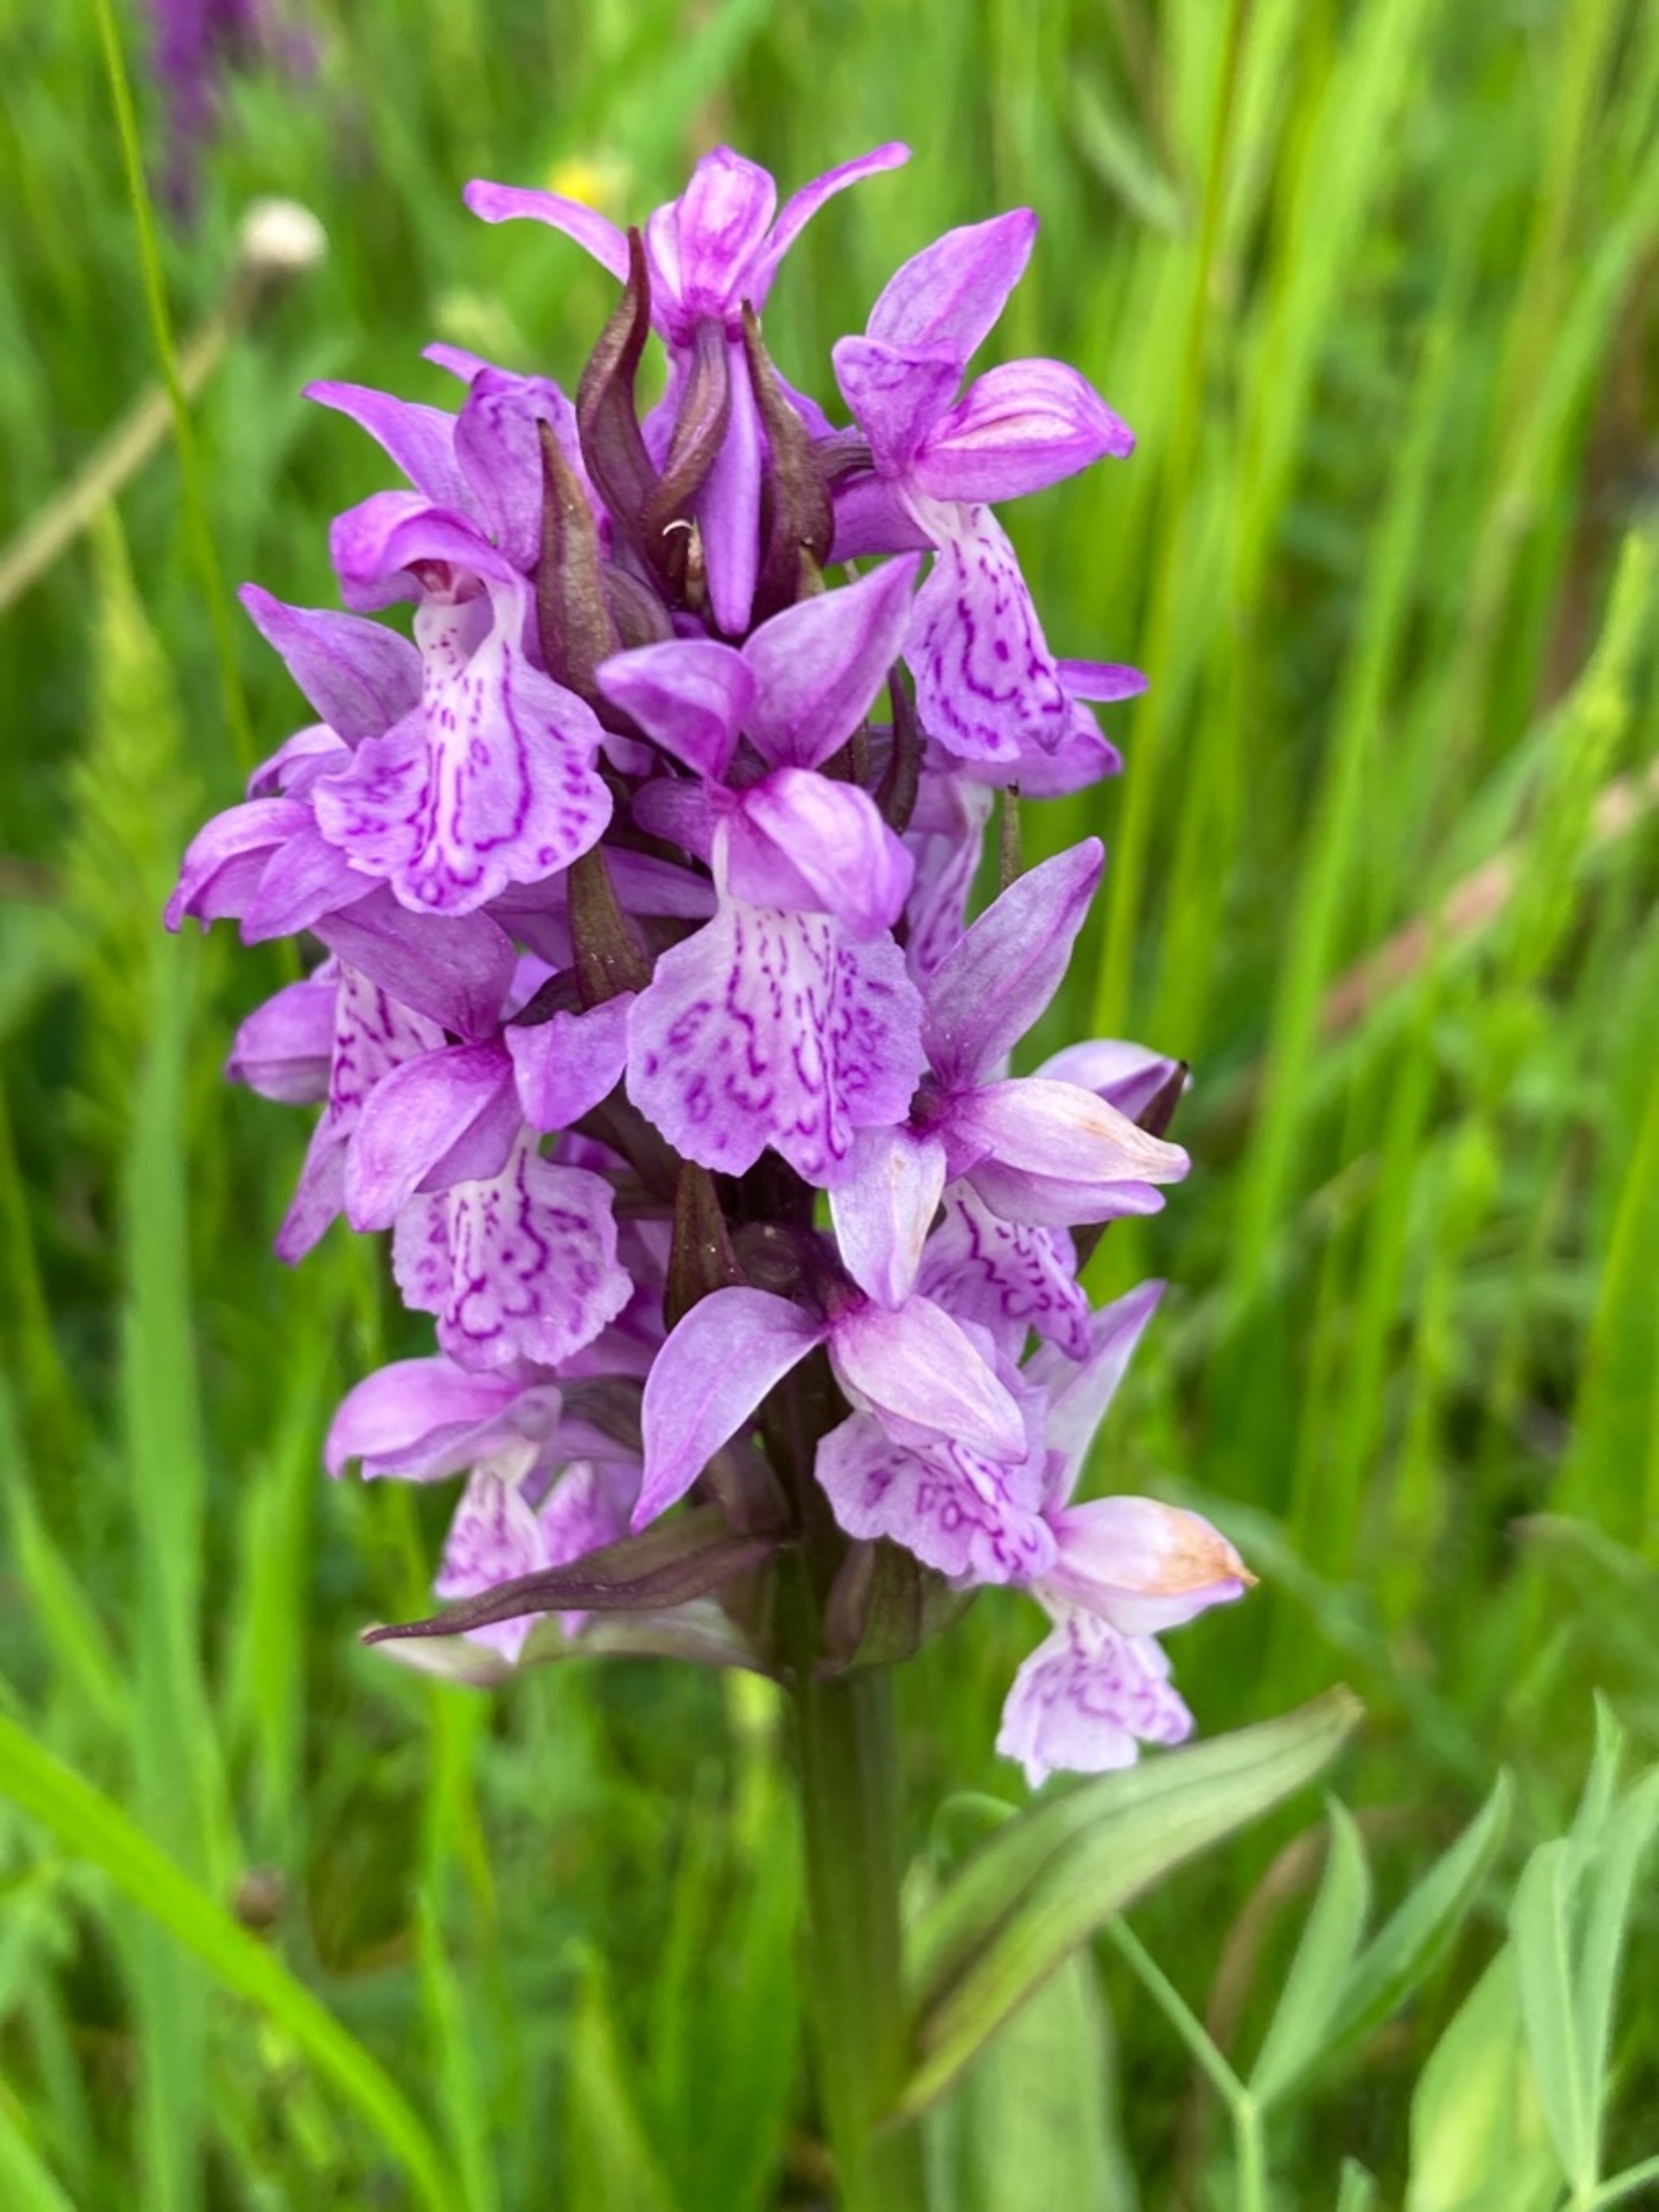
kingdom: Plantae
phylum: Tracheophyta
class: Liliopsida
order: Asparagales
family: Orchidaceae
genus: Dactylorhiza
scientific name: Dactylorhiza majalis
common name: Maj-gøgeurt
